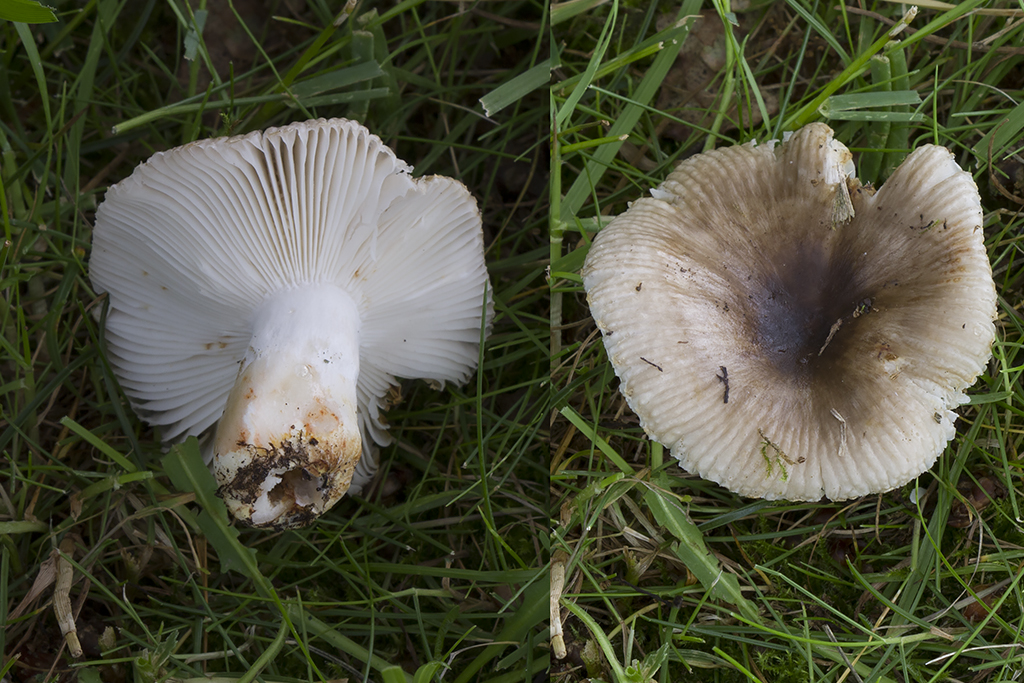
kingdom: Fungi
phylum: Basidiomycota
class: Agaricomycetes
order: Russulales
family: Russulaceae
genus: Russula
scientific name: Russula insignis
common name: gulfodet kam-skørhat
